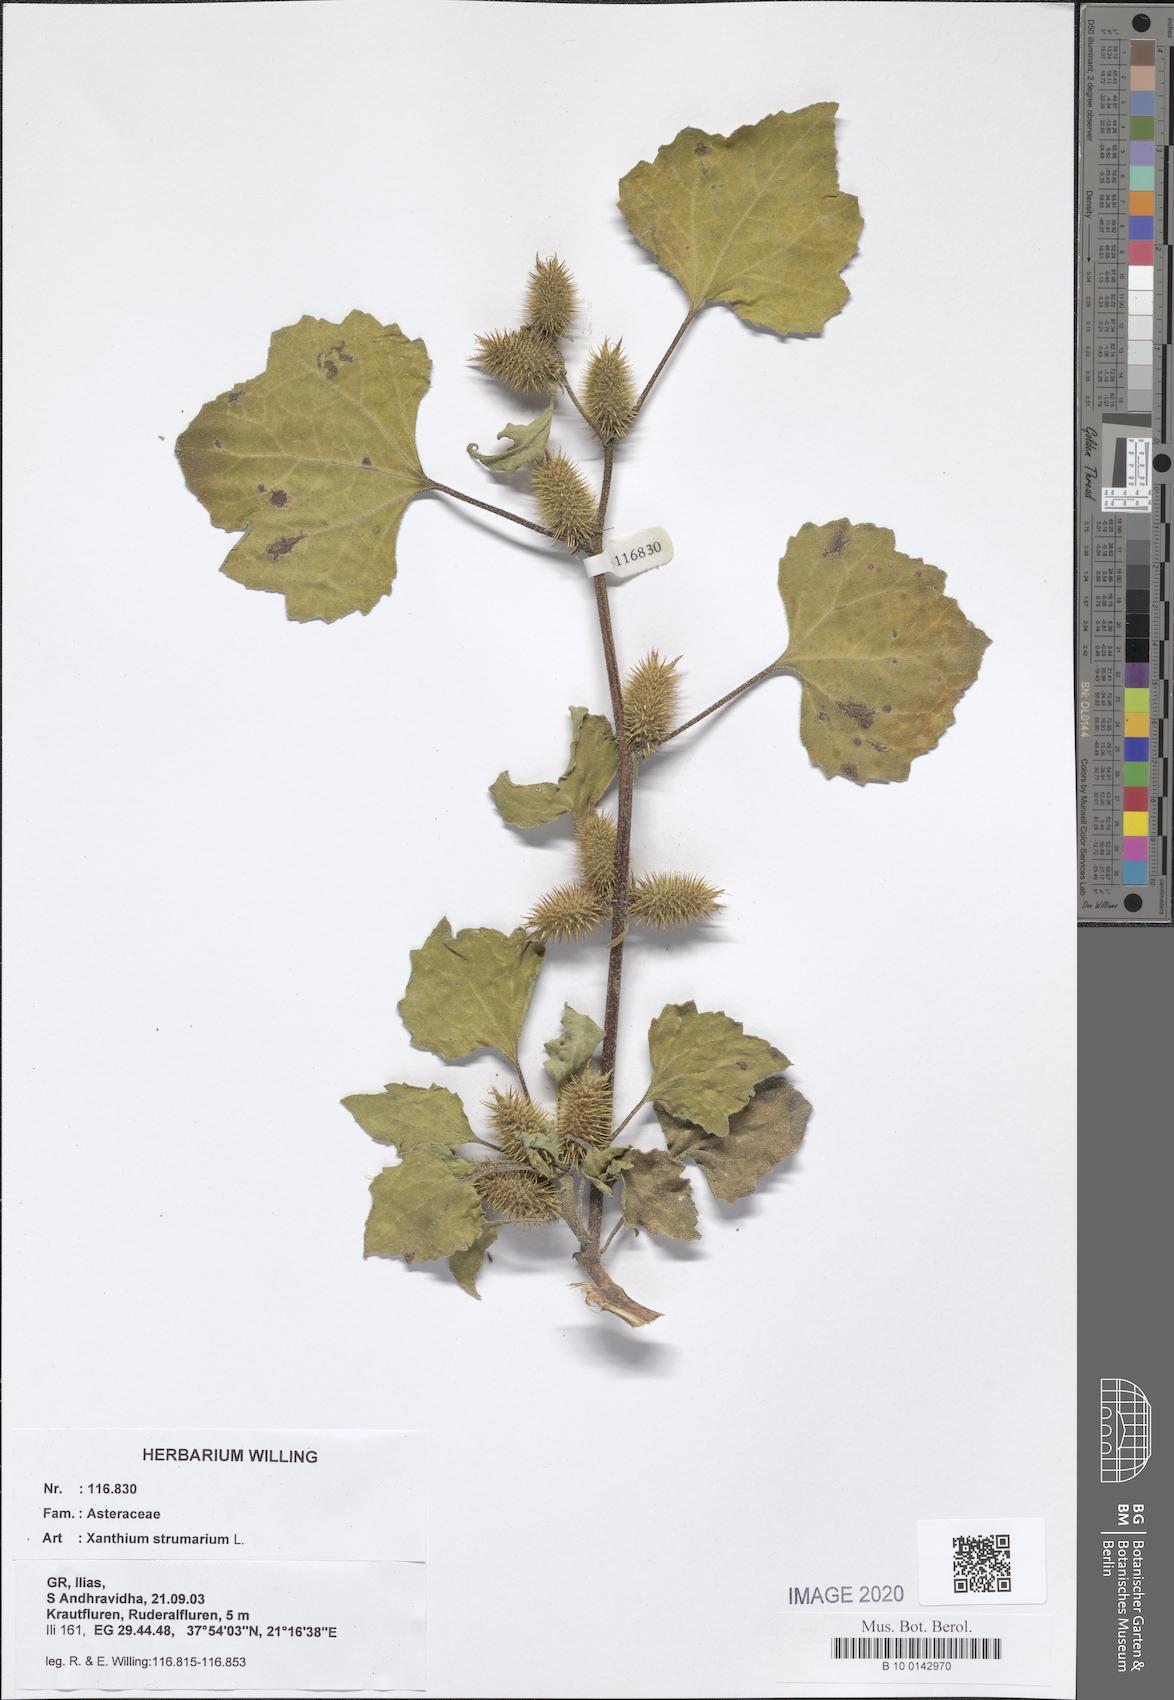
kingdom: Plantae
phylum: Tracheophyta
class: Magnoliopsida
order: Asterales
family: Asteraceae
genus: Xanthium
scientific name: Xanthium strumarium
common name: Rough cocklebur
